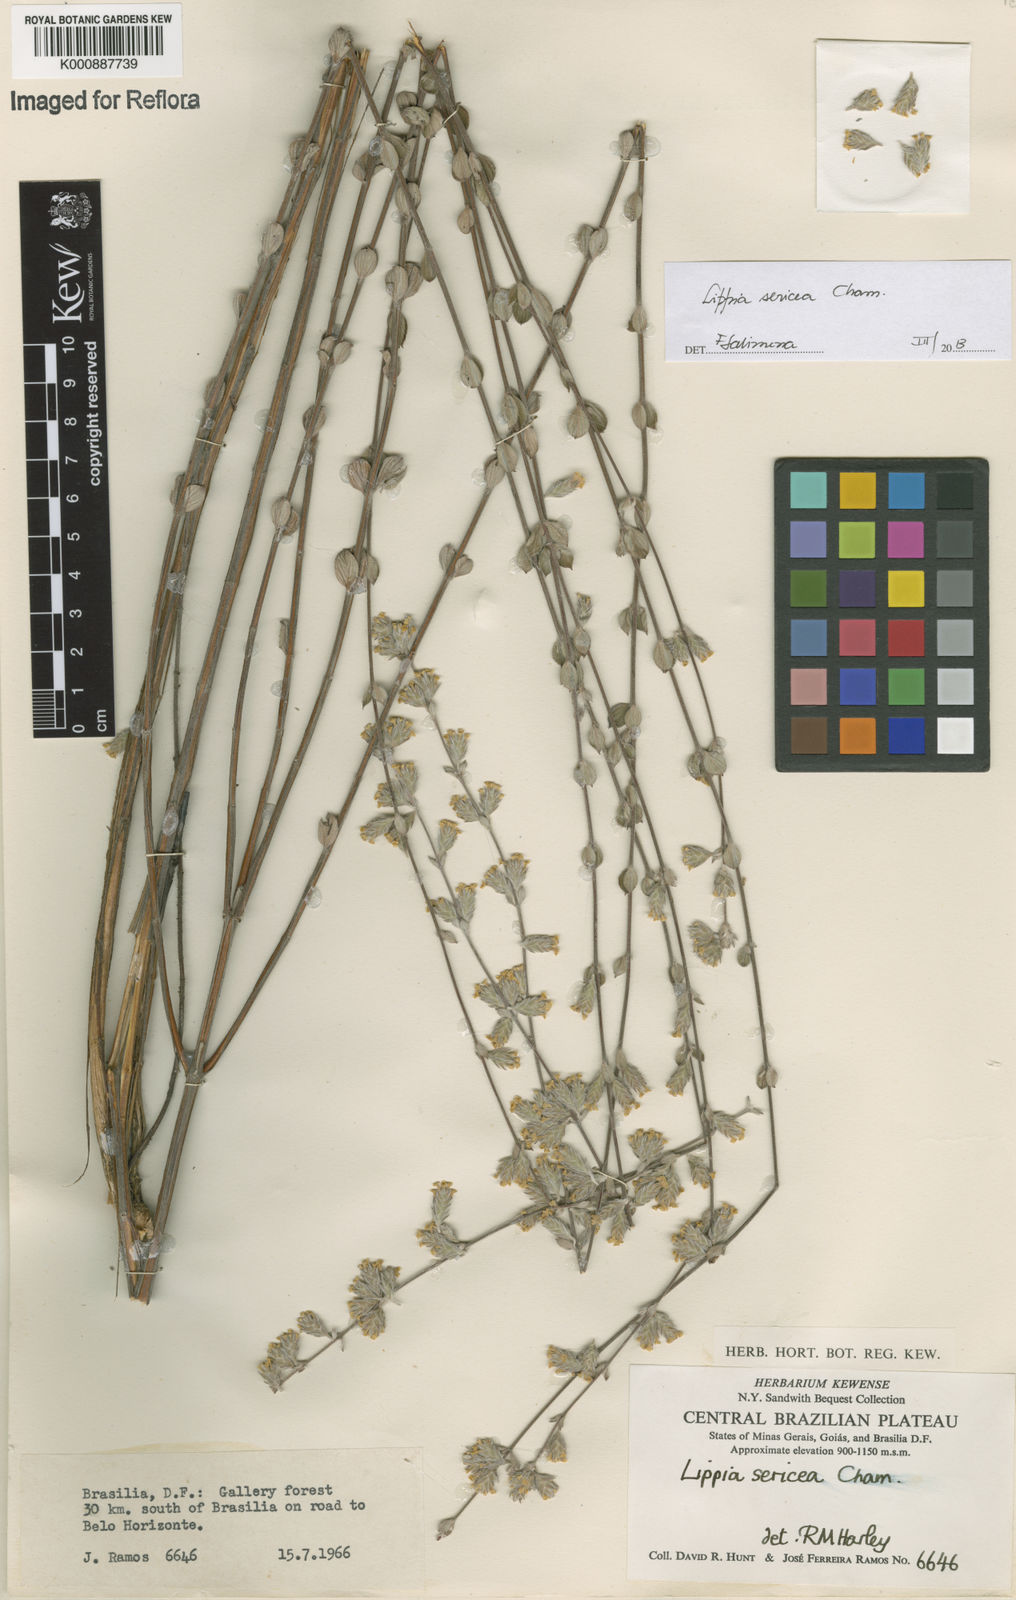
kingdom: Plantae
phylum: Tracheophyta
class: Magnoliopsida
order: Lamiales
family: Verbenaceae
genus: Lippia
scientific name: Lippia sericea
